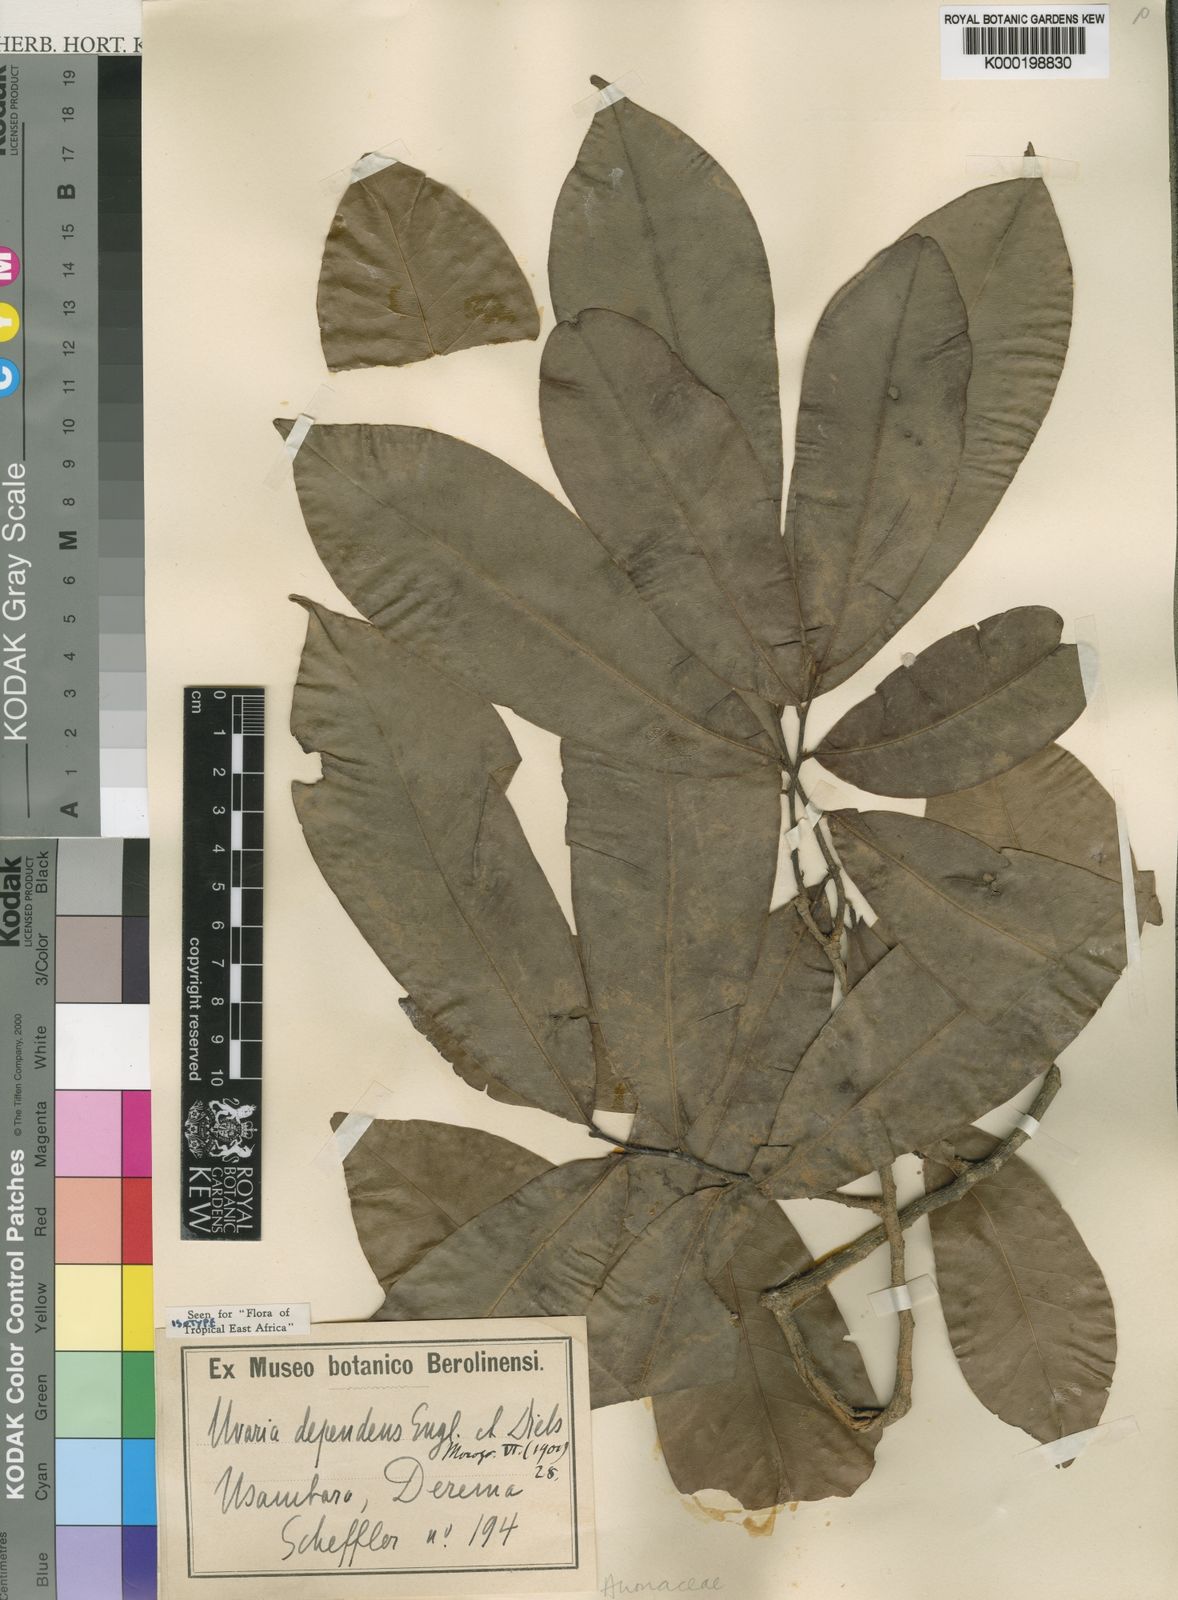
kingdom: Plantae
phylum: Tracheophyta
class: Magnoliopsida
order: Magnoliales
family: Annonaceae
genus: Uvariastrum
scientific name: Uvariastrum dependens
